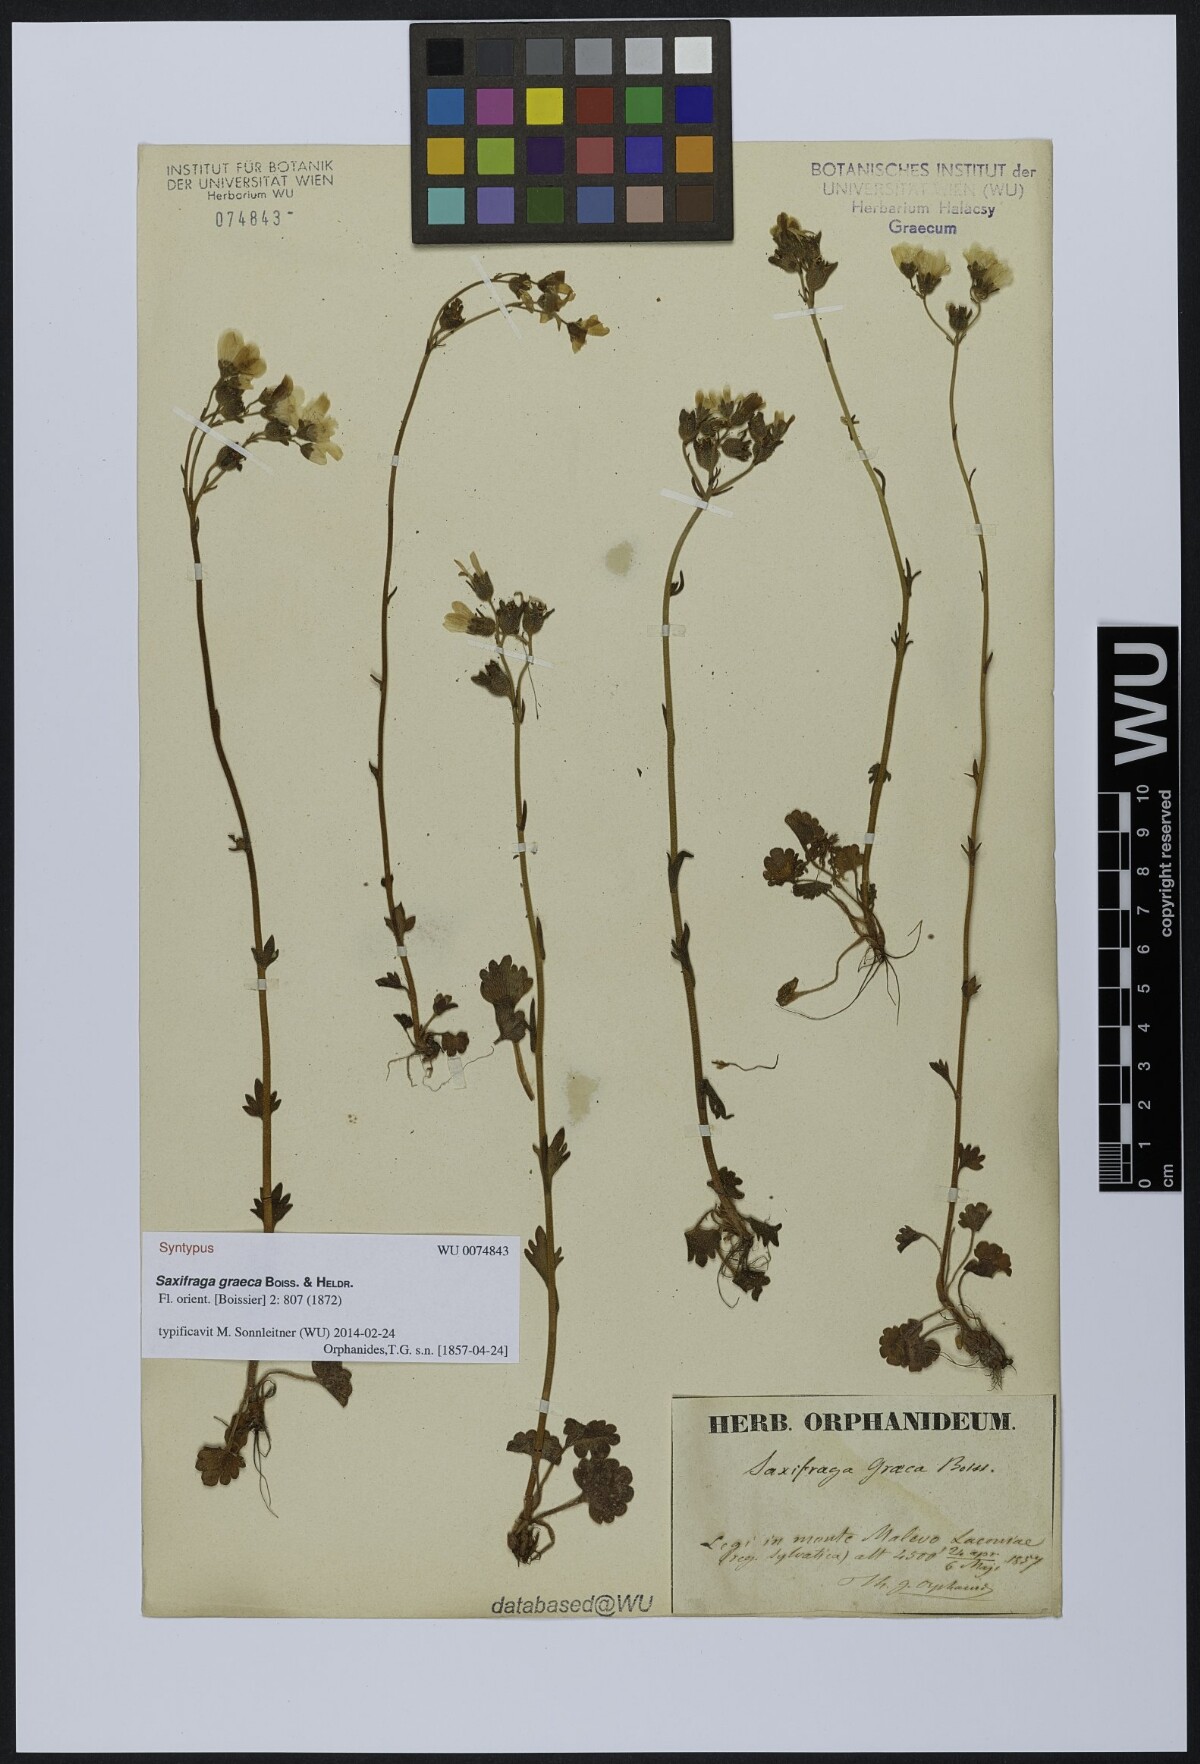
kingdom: Plantae
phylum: Tracheophyta
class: Magnoliopsida
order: Saxifragales
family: Saxifragaceae
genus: Saxifraga
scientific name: Saxifraga carpetana
